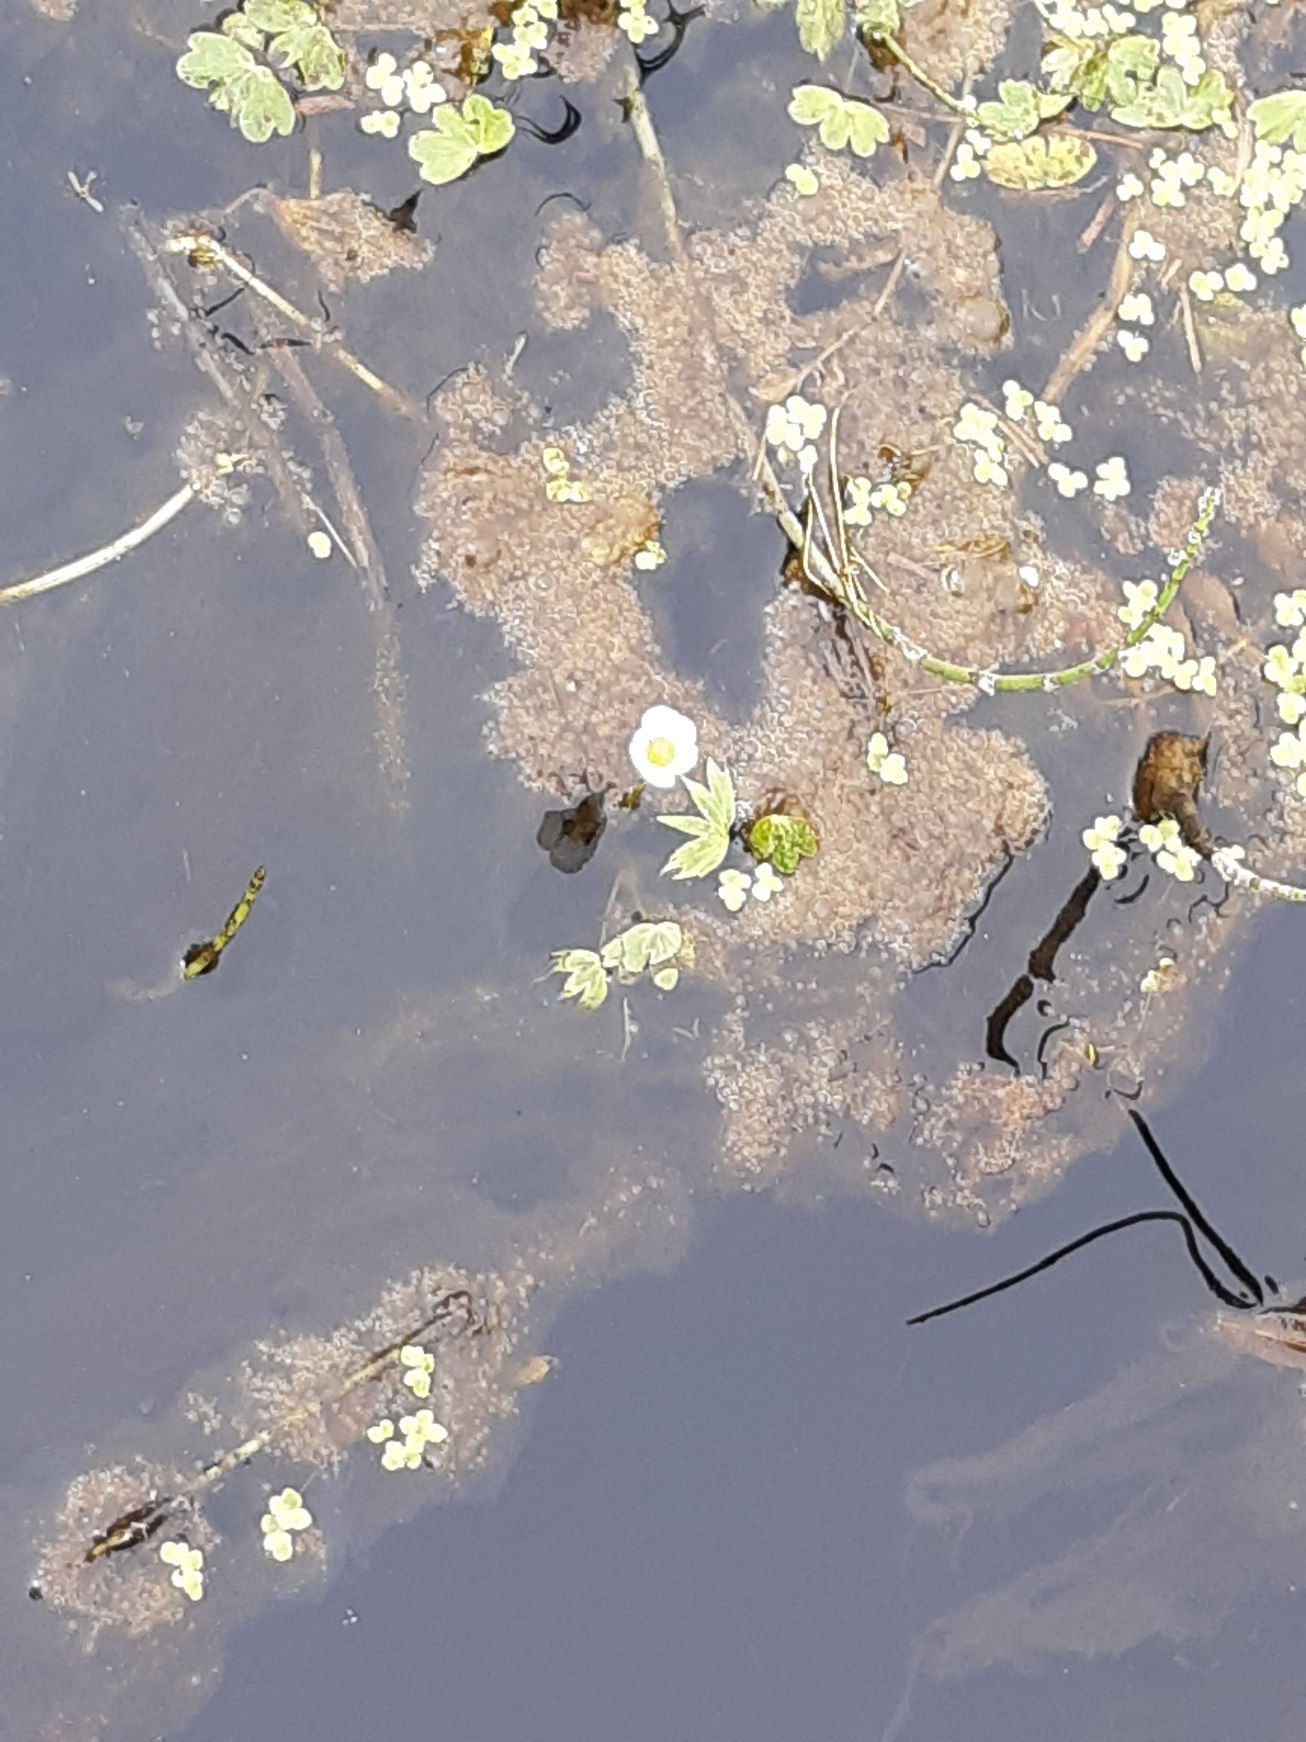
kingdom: Plantae
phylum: Tracheophyta
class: Magnoliopsida
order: Ranunculales
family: Ranunculaceae
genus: Ranunculus
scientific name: Ranunculus peltatus
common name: Storblomstret vandranunkel (underart)
